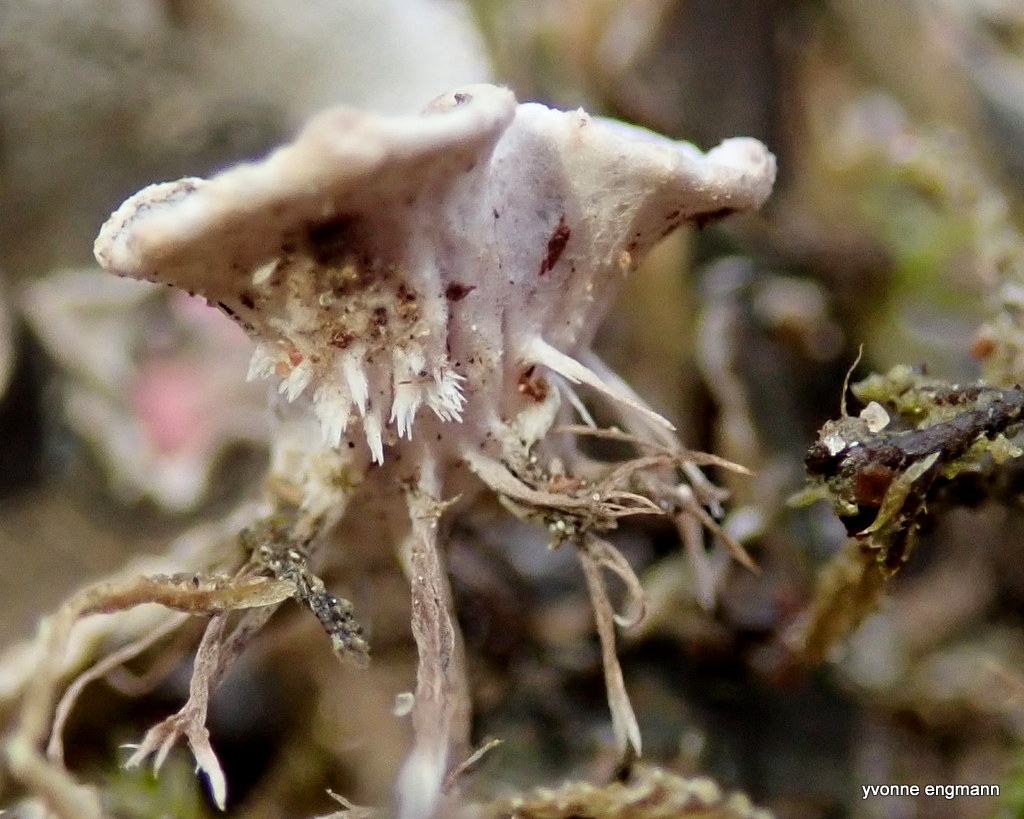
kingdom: Fungi
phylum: Ascomycota
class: Lecanoromycetes
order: Peltigerales
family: Peltigeraceae
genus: Peltigera
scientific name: Peltigera
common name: skjoldlav
